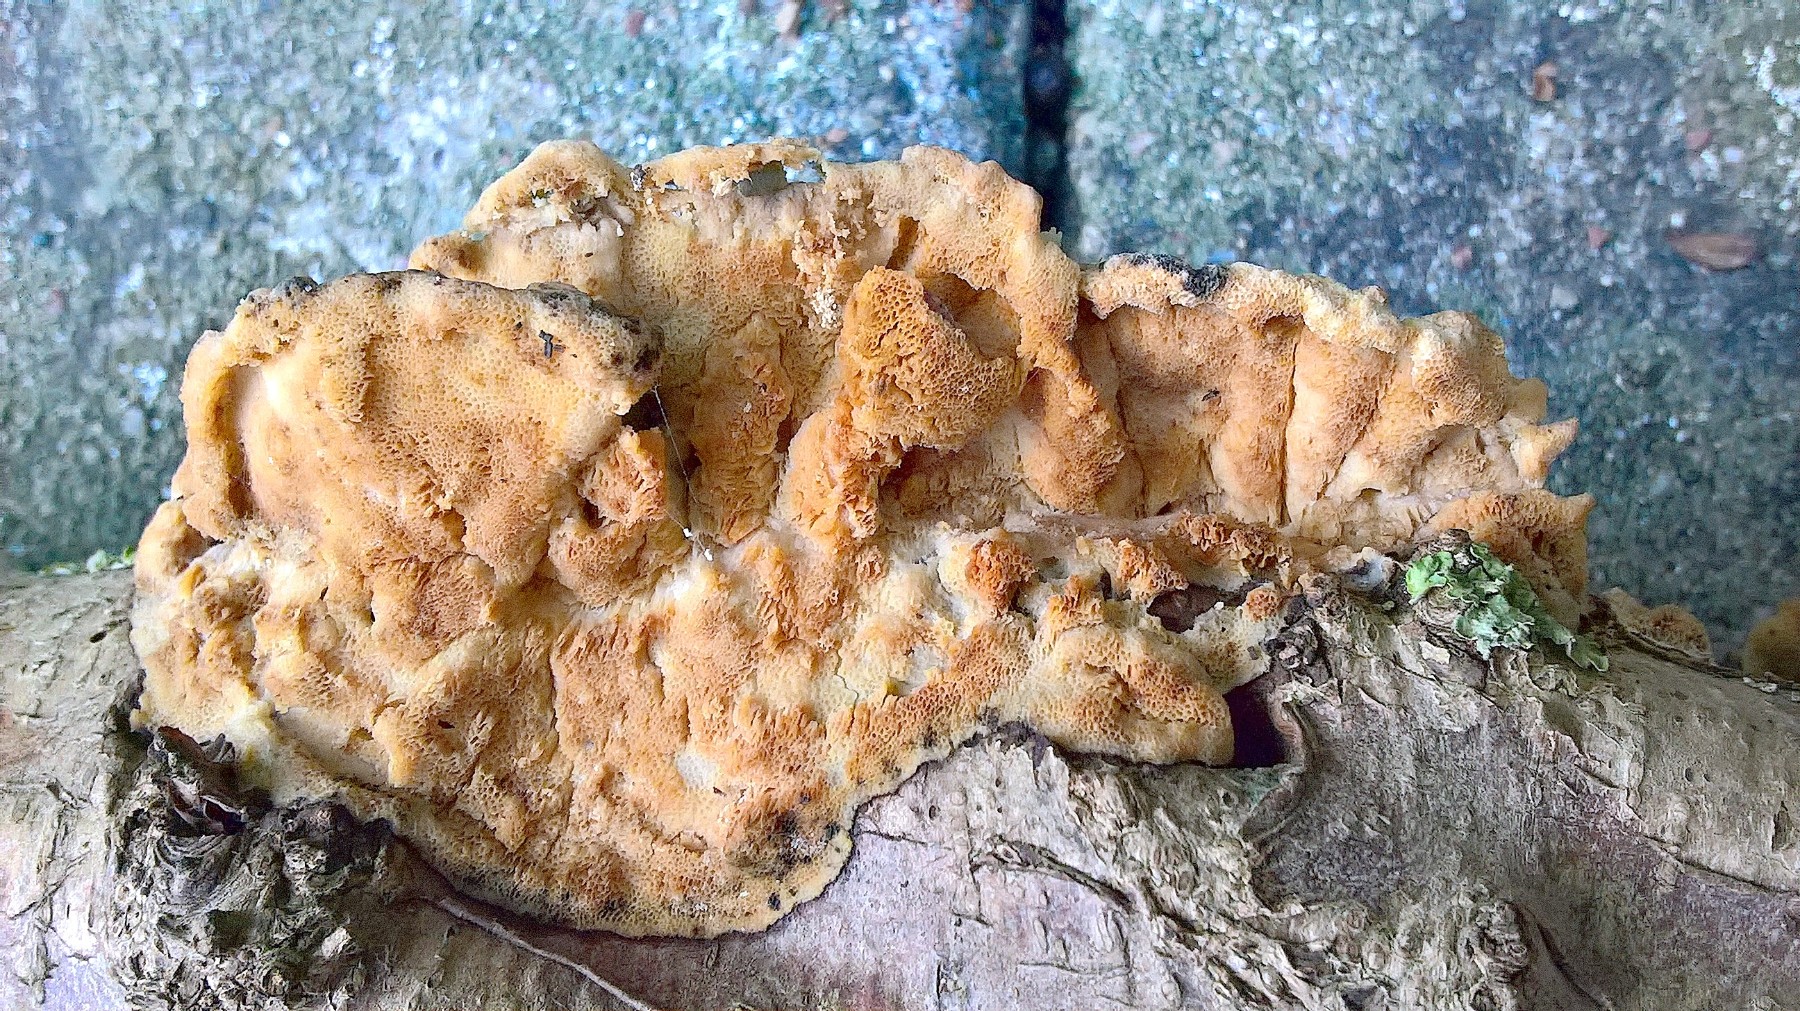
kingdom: Fungi
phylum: Basidiomycota
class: Agaricomycetes
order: Polyporales
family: Polyporaceae
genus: Trametes
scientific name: Trametes hirsuta
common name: håret læderporesvamp
